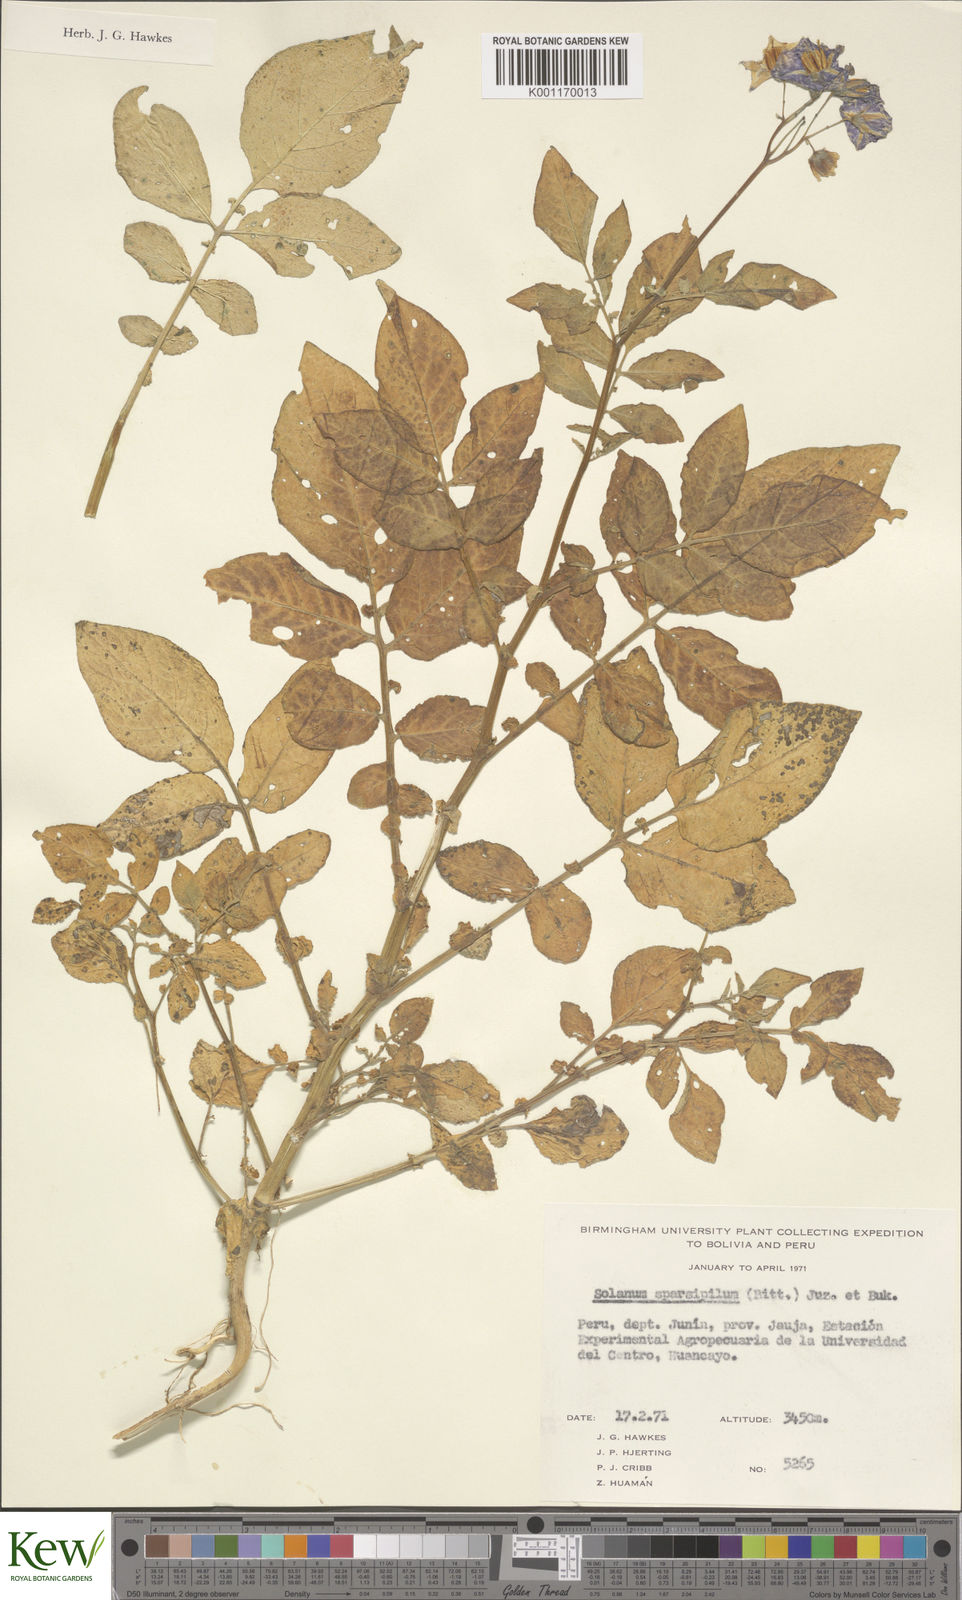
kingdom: Plantae
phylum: Tracheophyta
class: Magnoliopsida
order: Solanales
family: Solanaceae
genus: Solanum
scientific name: Solanum brevicaule
